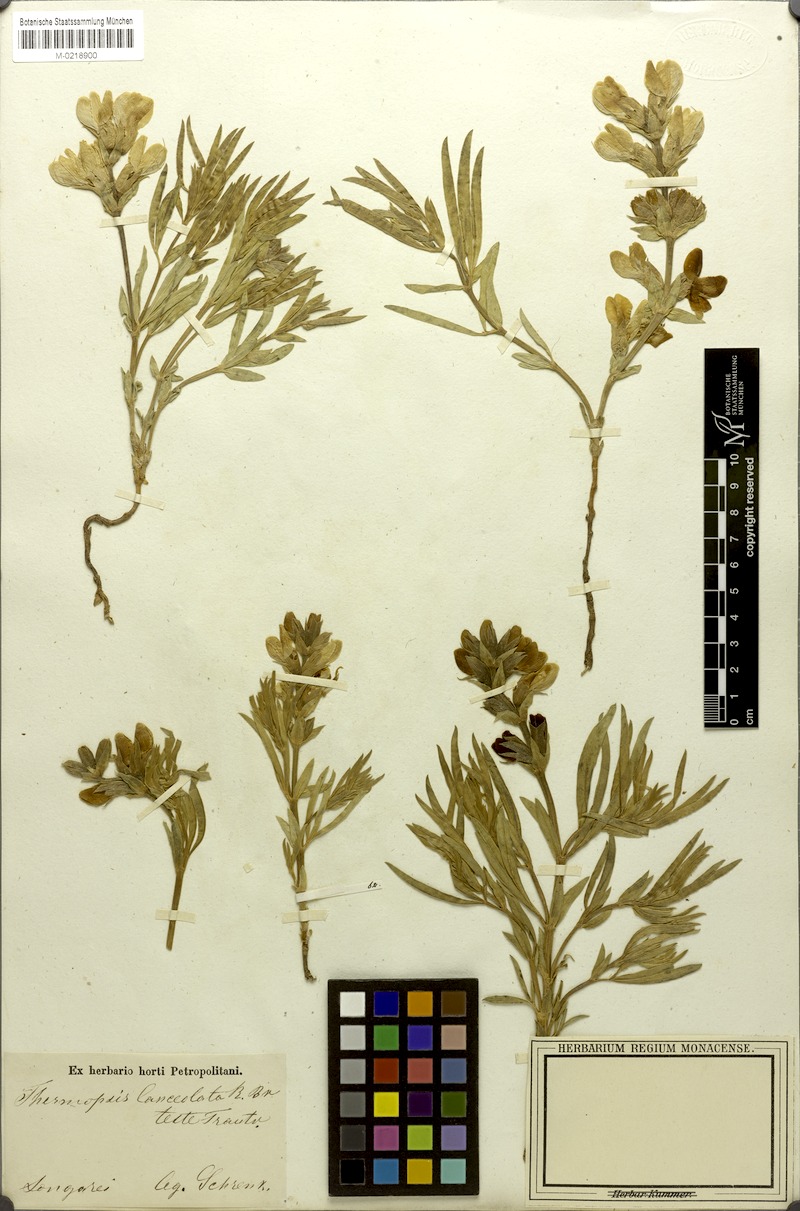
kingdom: Plantae
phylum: Tracheophyta
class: Magnoliopsida
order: Fabales
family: Fabaceae
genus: Thermopsis
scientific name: Thermopsis lanceolata
